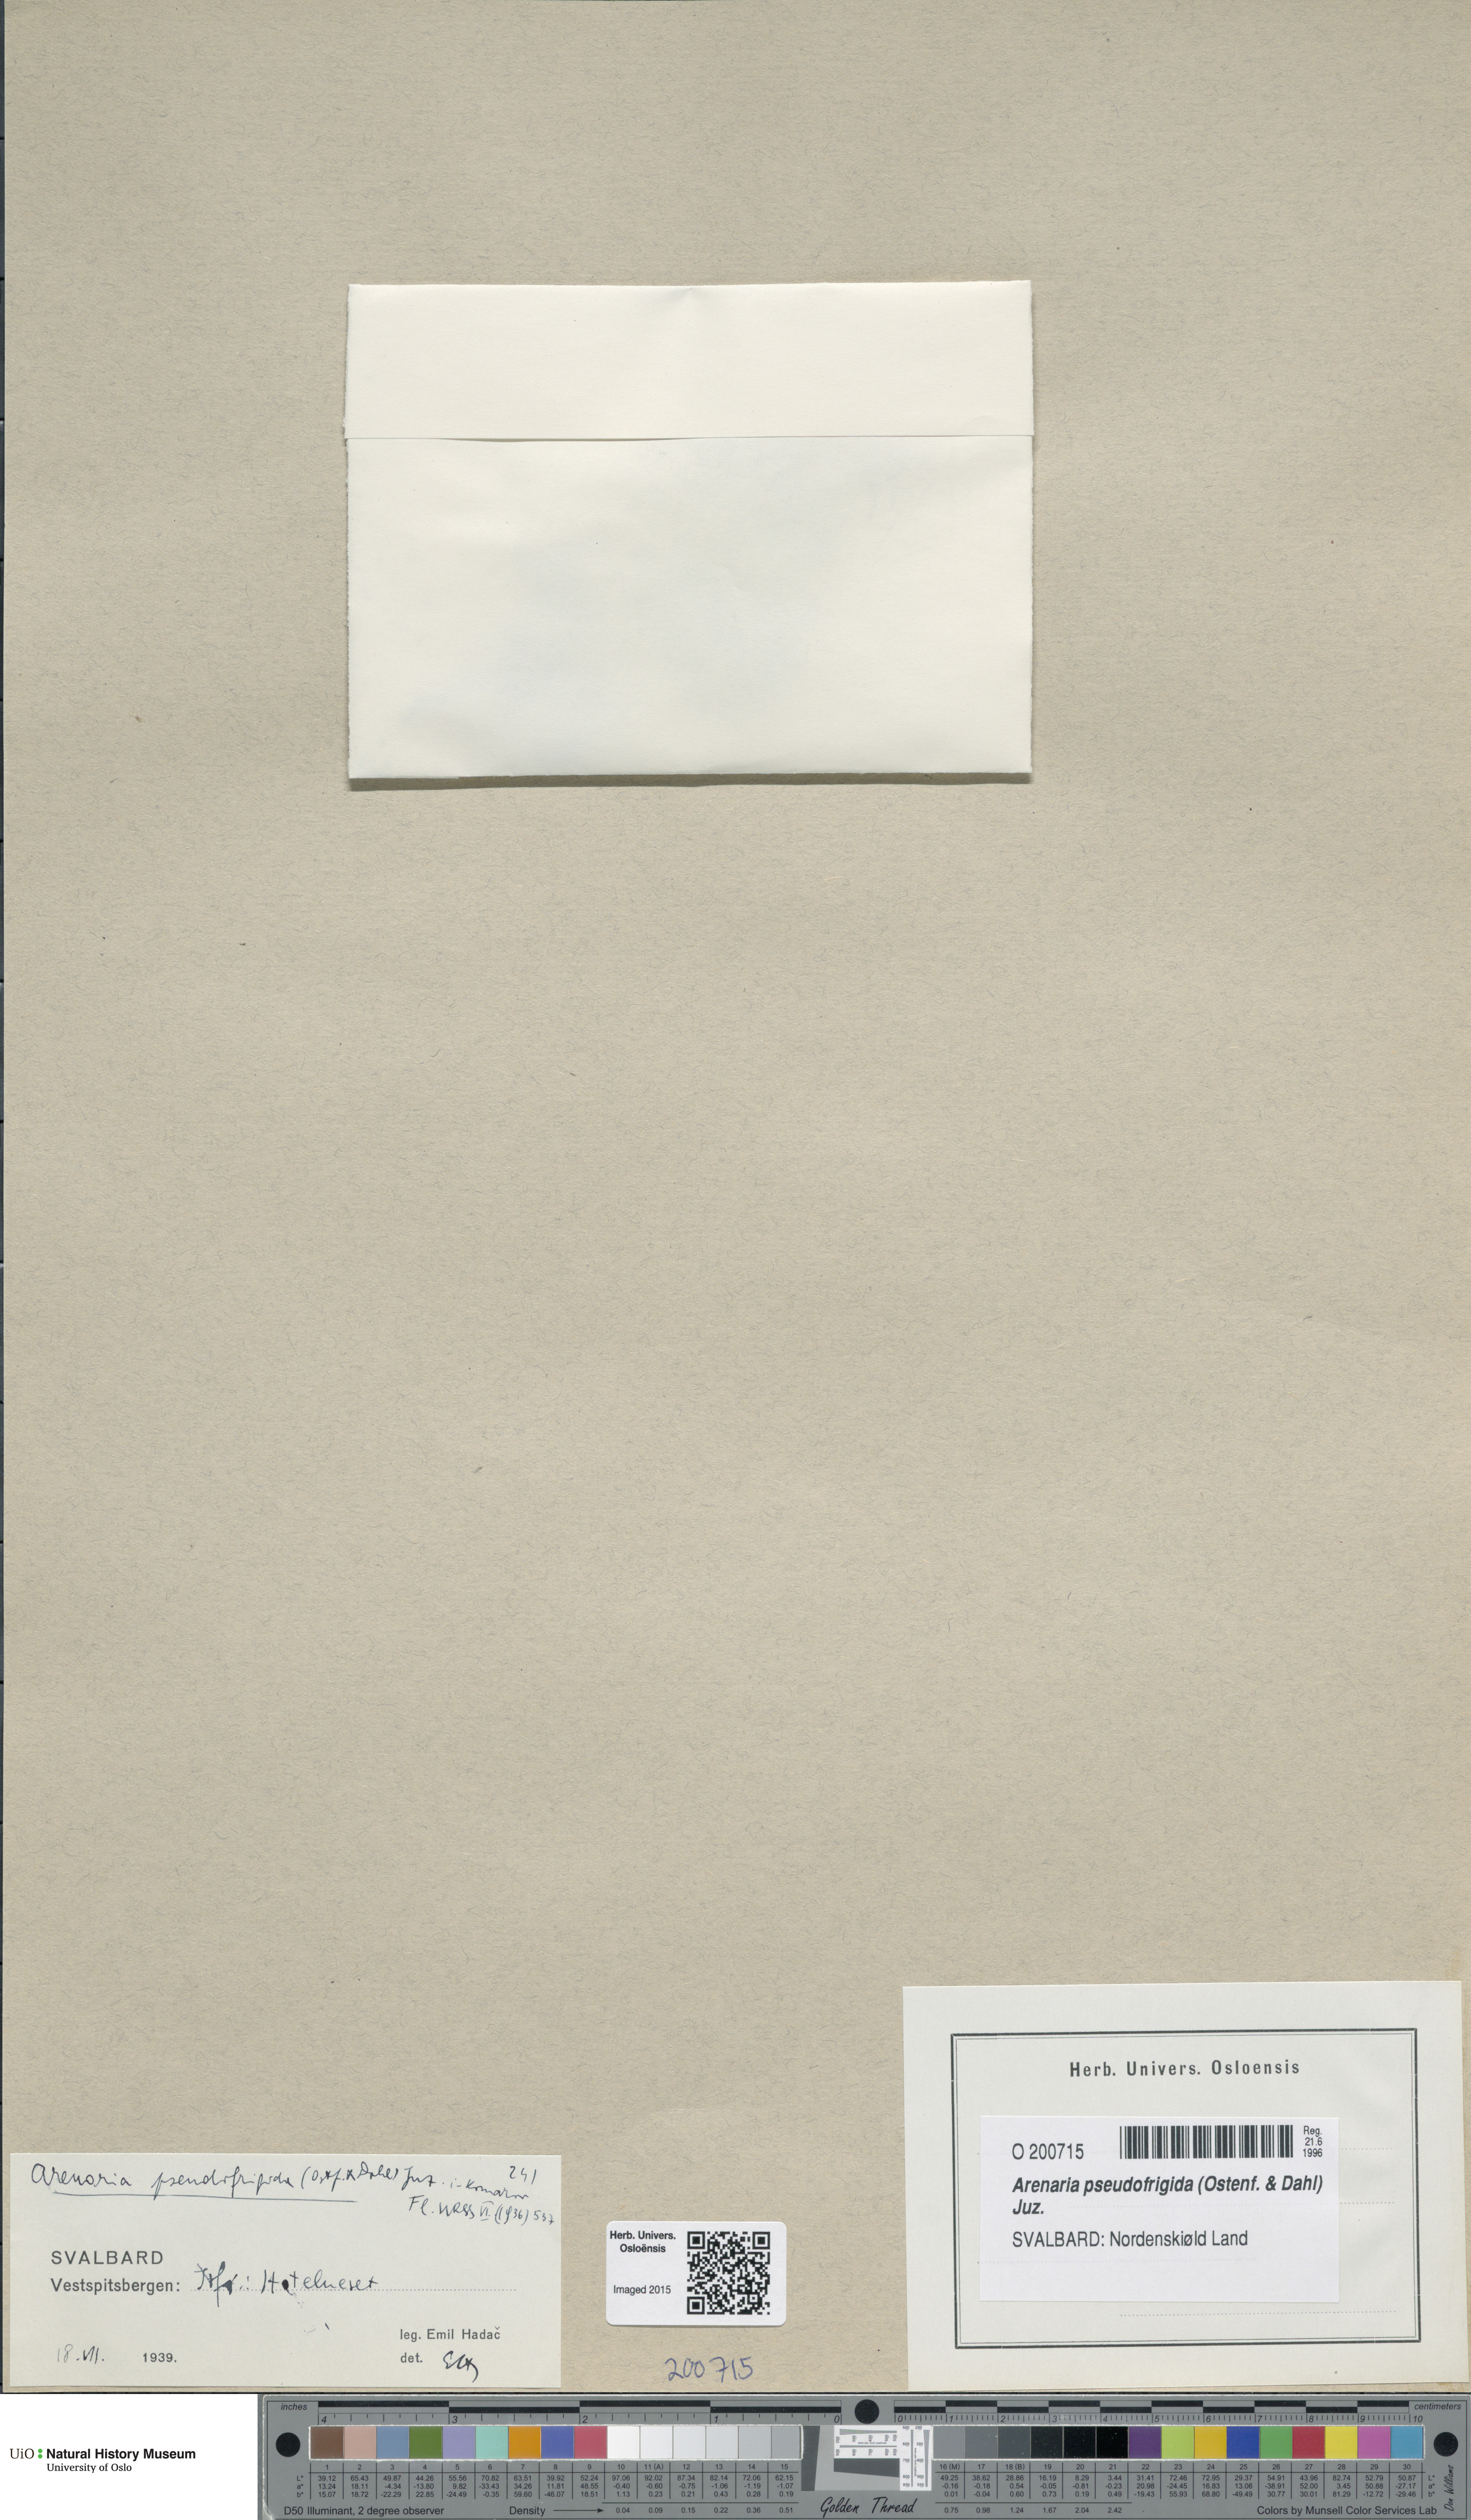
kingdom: Plantae
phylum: Tracheophyta
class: Magnoliopsida
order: Caryophyllales
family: Caryophyllaceae
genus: Arenaria
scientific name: Arenaria pseudofrigida
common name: Tundra sandwort
